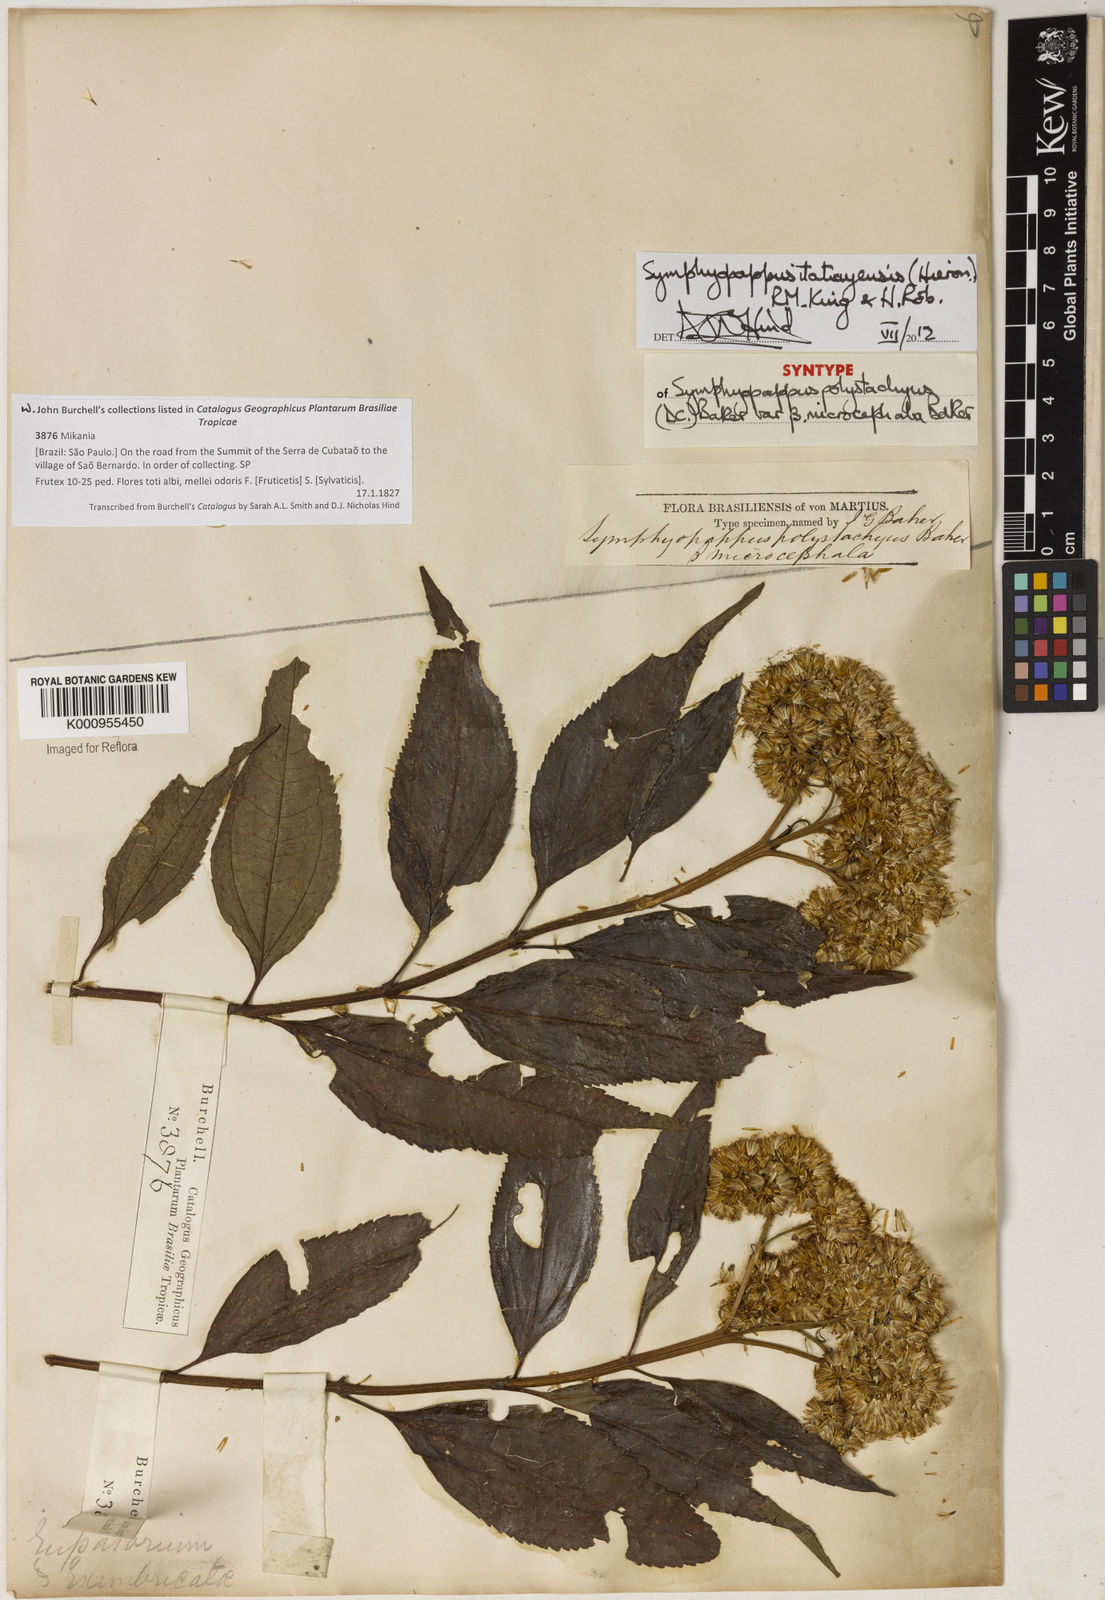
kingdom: Plantae
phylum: Tracheophyta
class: Magnoliopsida
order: Asterales
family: Asteraceae
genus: Symphyopappus
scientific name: Symphyopappus itatiayensis
